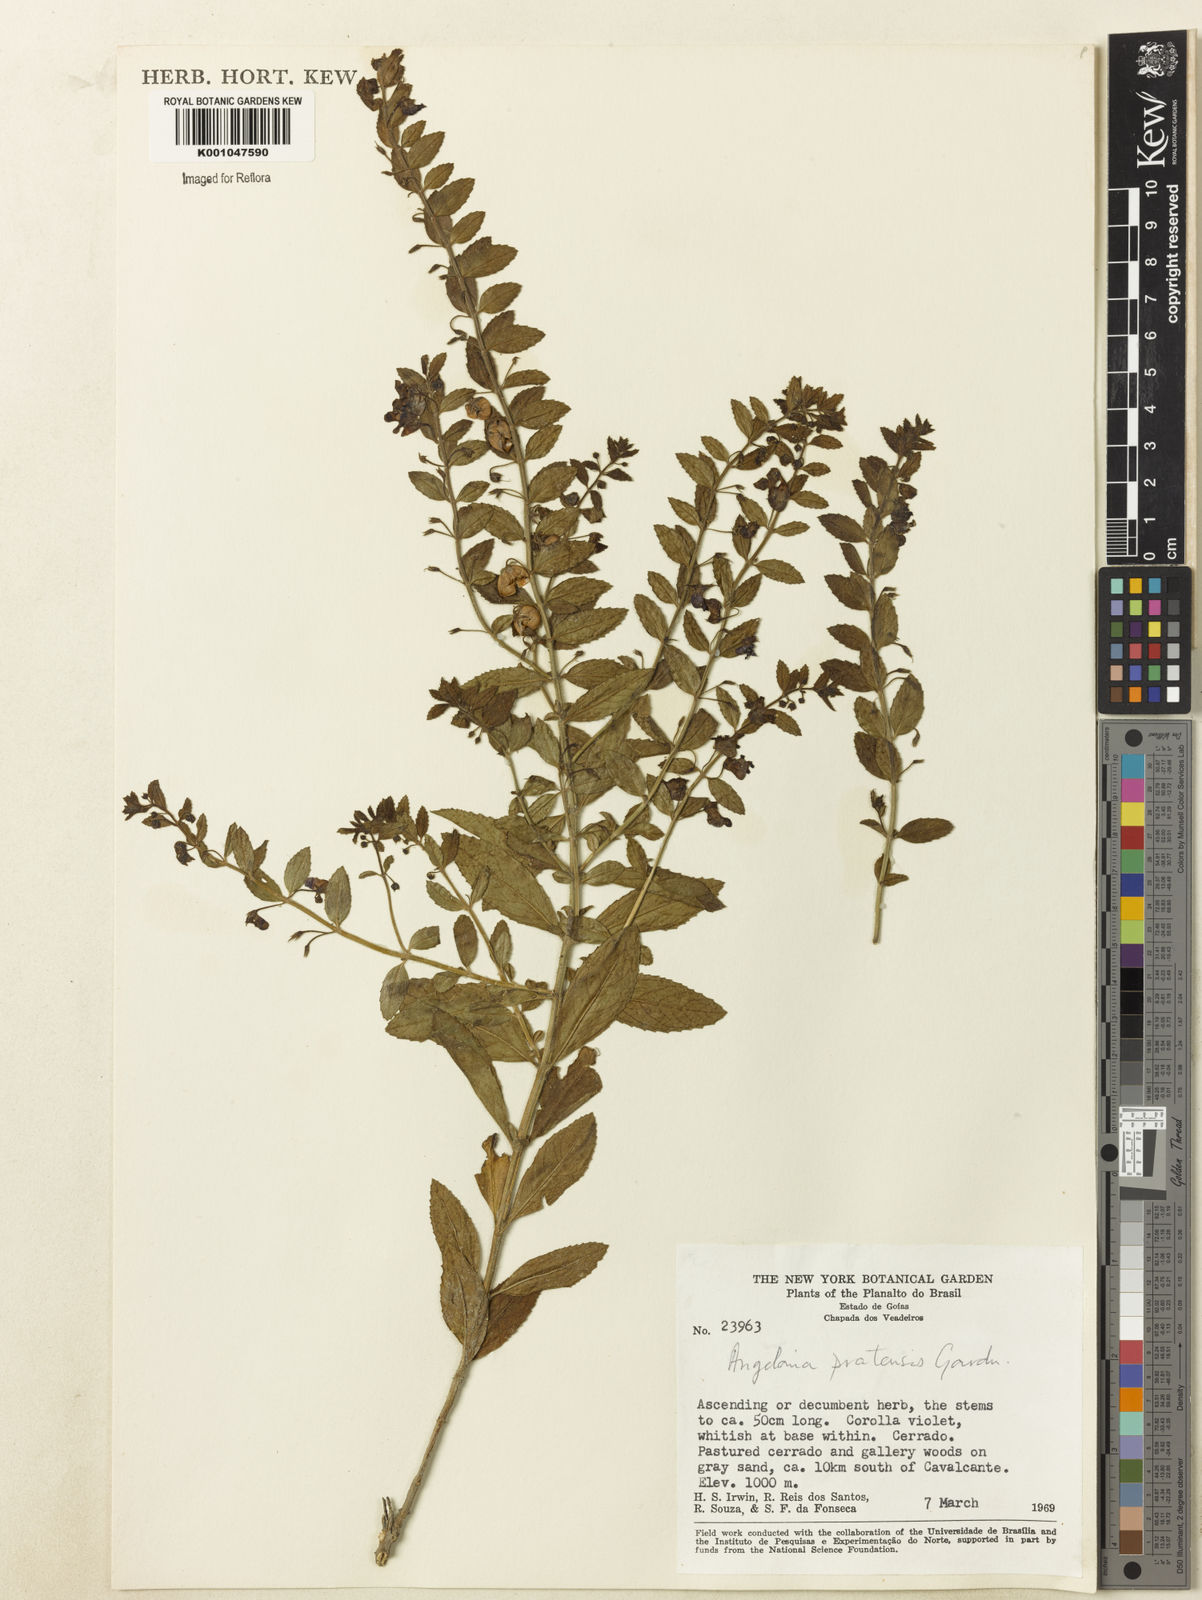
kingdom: Plantae
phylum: Tracheophyta
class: Magnoliopsida
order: Lamiales
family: Plantaginaceae
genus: Angelonia
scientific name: Angelonia pratensis
